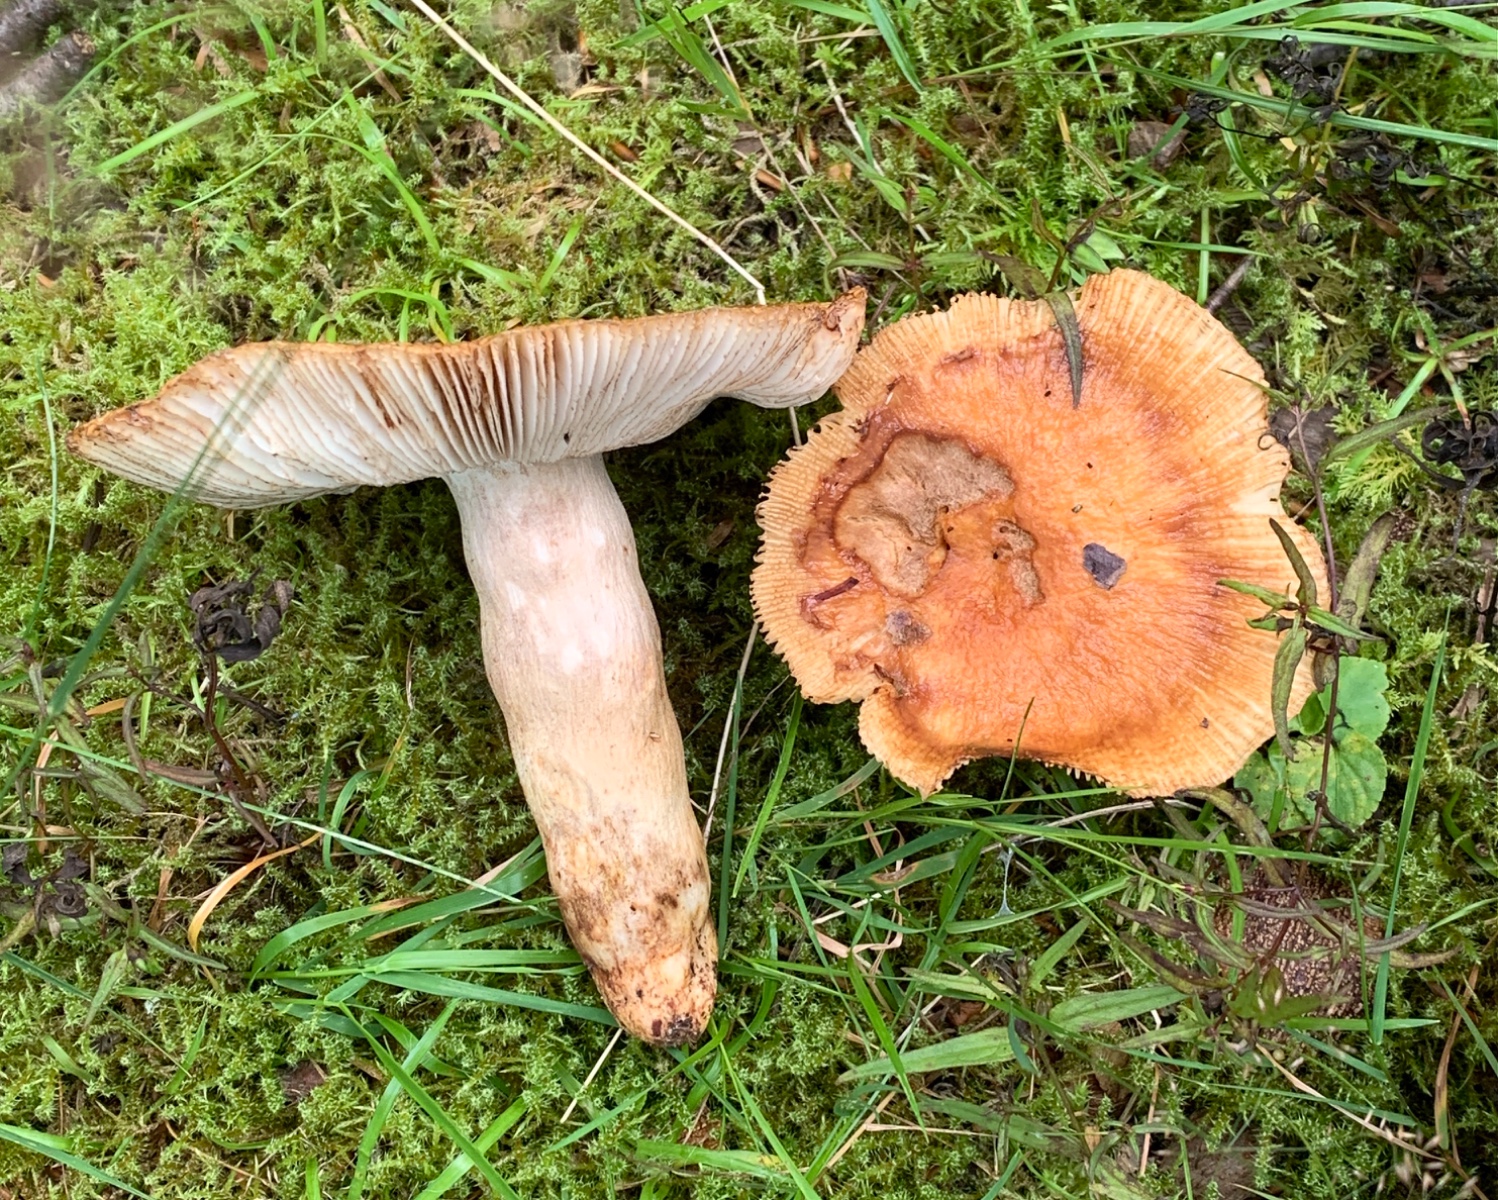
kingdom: Fungi
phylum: Basidiomycota
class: Agaricomycetes
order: Russulales
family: Russulaceae
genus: Russula
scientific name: Russula foetens
